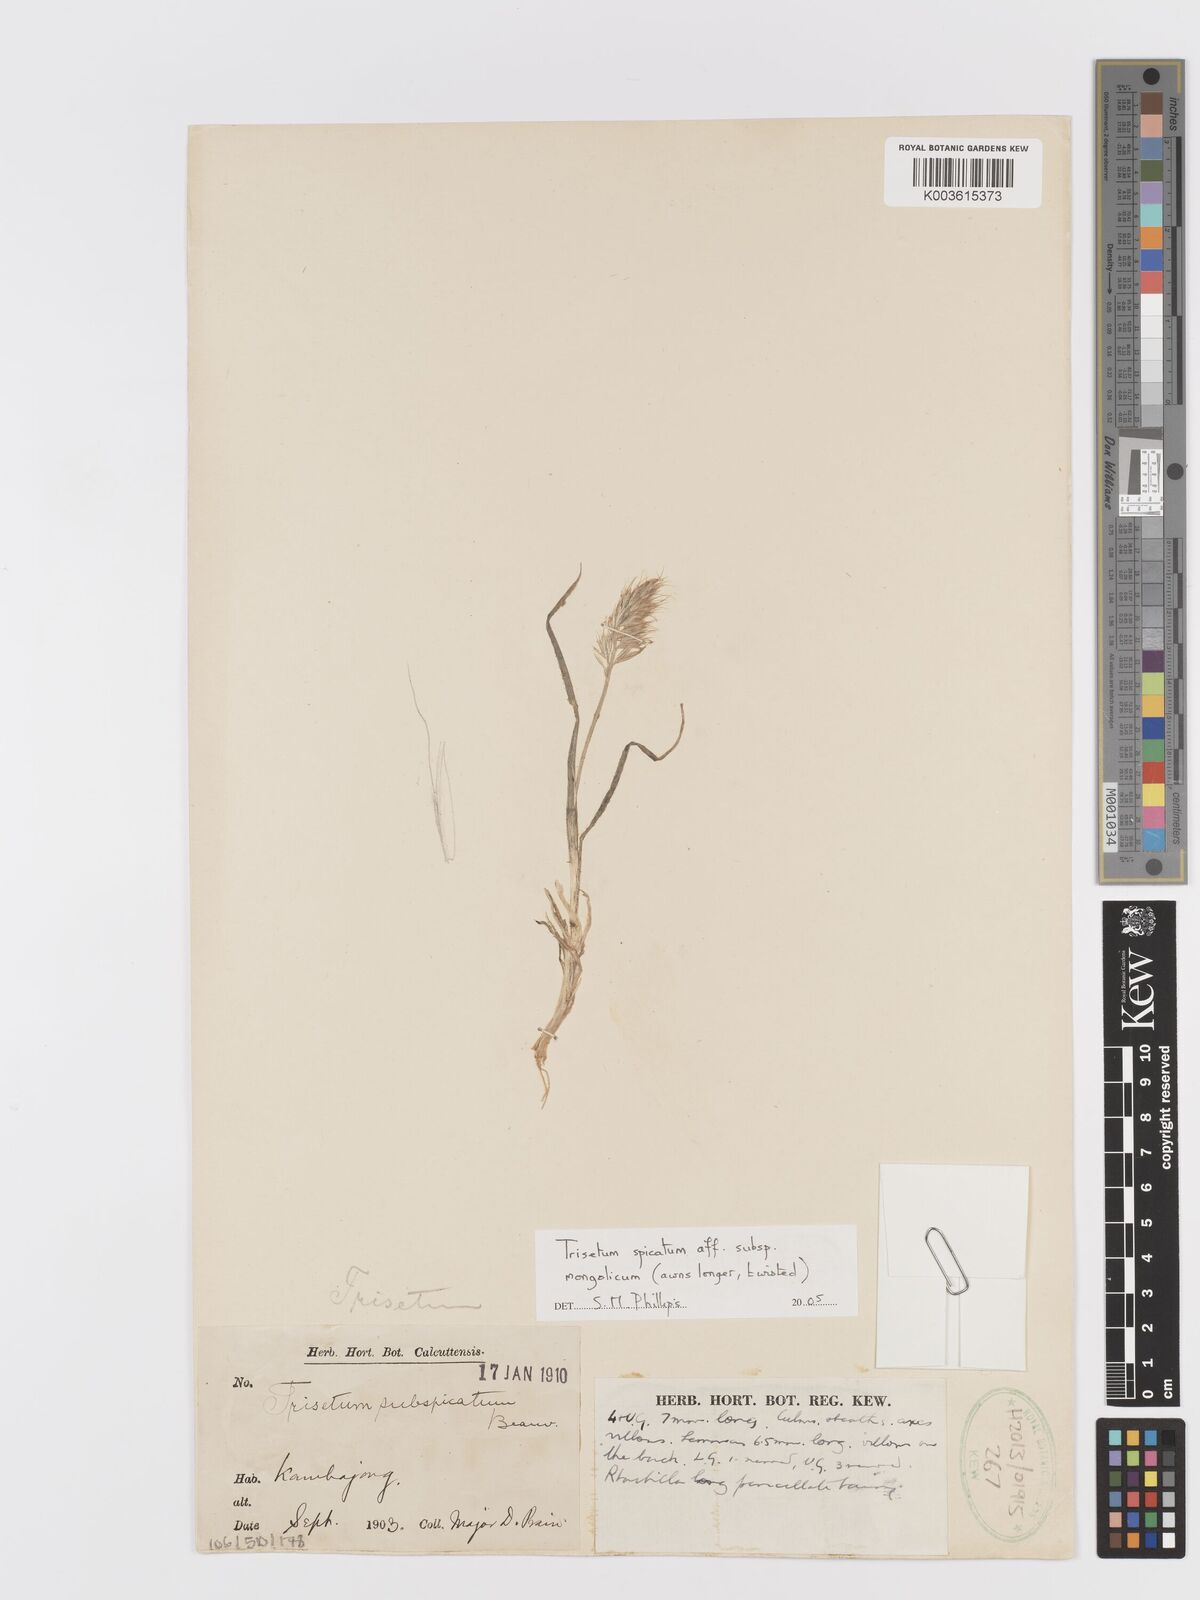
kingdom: Plantae
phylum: Tracheophyta
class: Liliopsida
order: Poales
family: Poaceae
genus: Sibirotrisetum
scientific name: Sibirotrisetum aeneum
